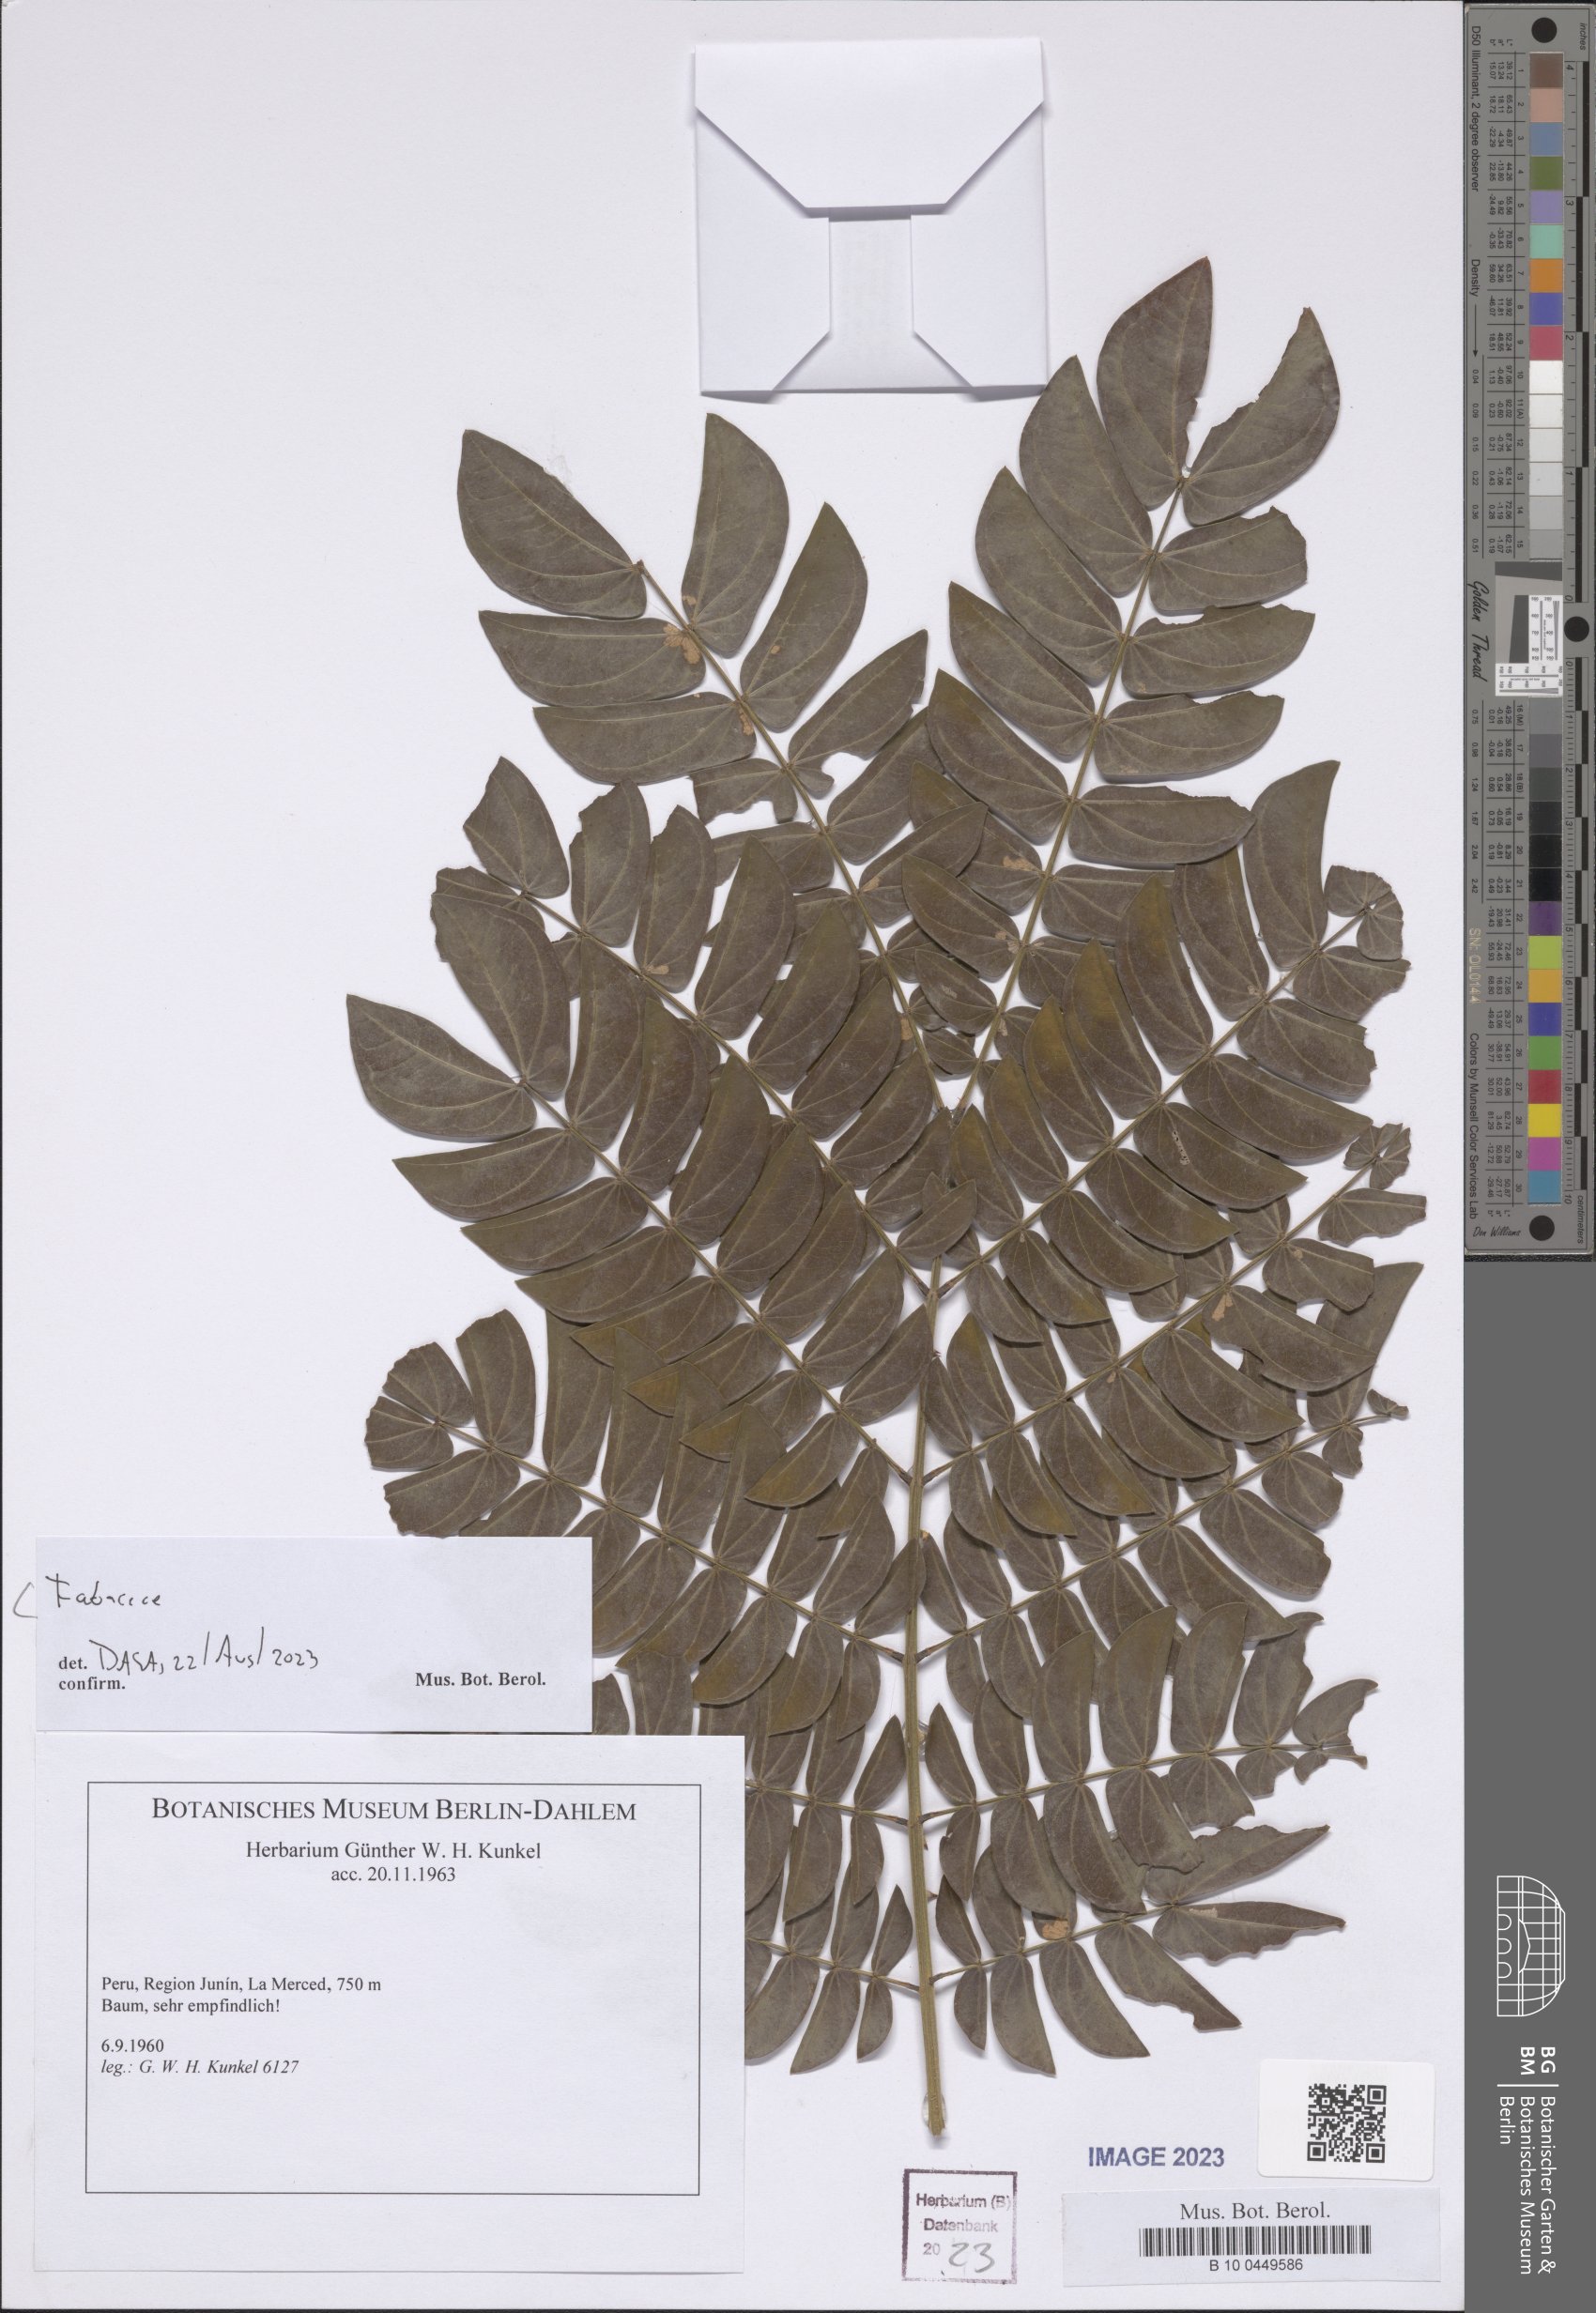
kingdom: Plantae
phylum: Tracheophyta
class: Magnoliopsida
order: Fabales
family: Fabaceae
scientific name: Fabaceae
